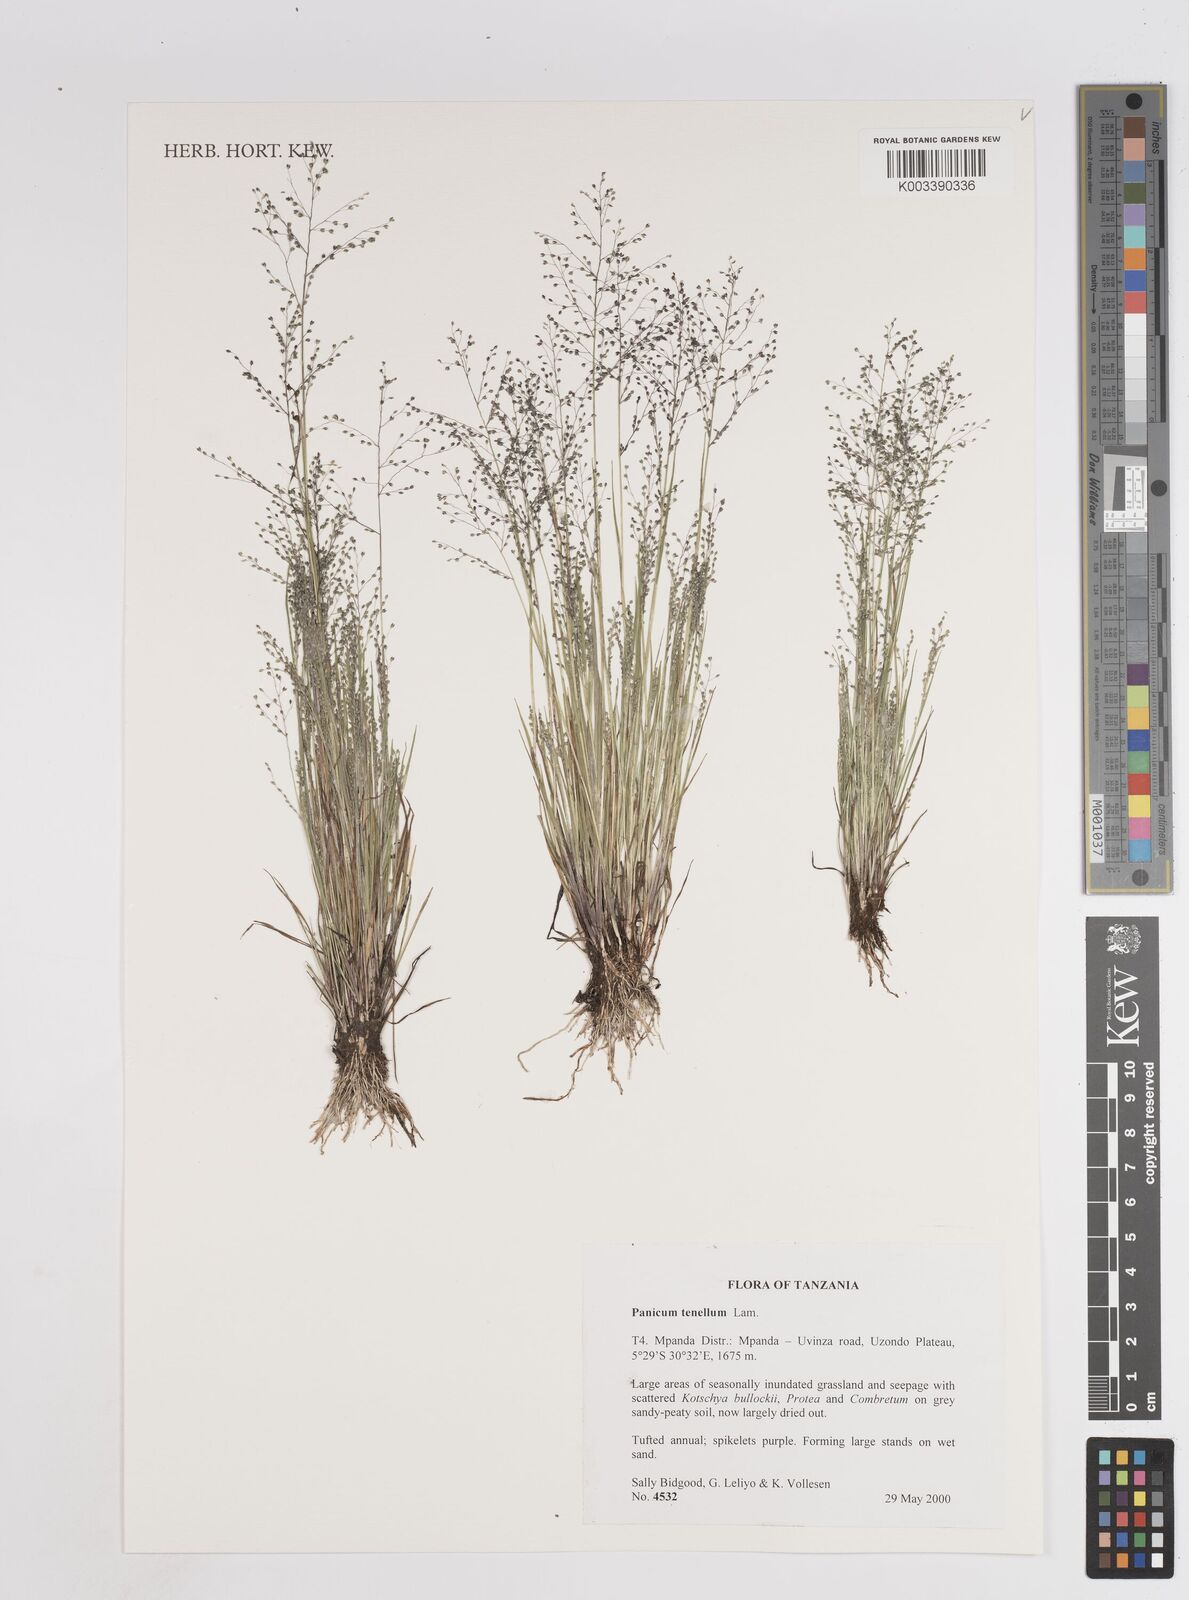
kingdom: Plantae
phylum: Tracheophyta
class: Liliopsida
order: Poales
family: Poaceae
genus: Trichanthecium
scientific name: Trichanthecium tenellum
